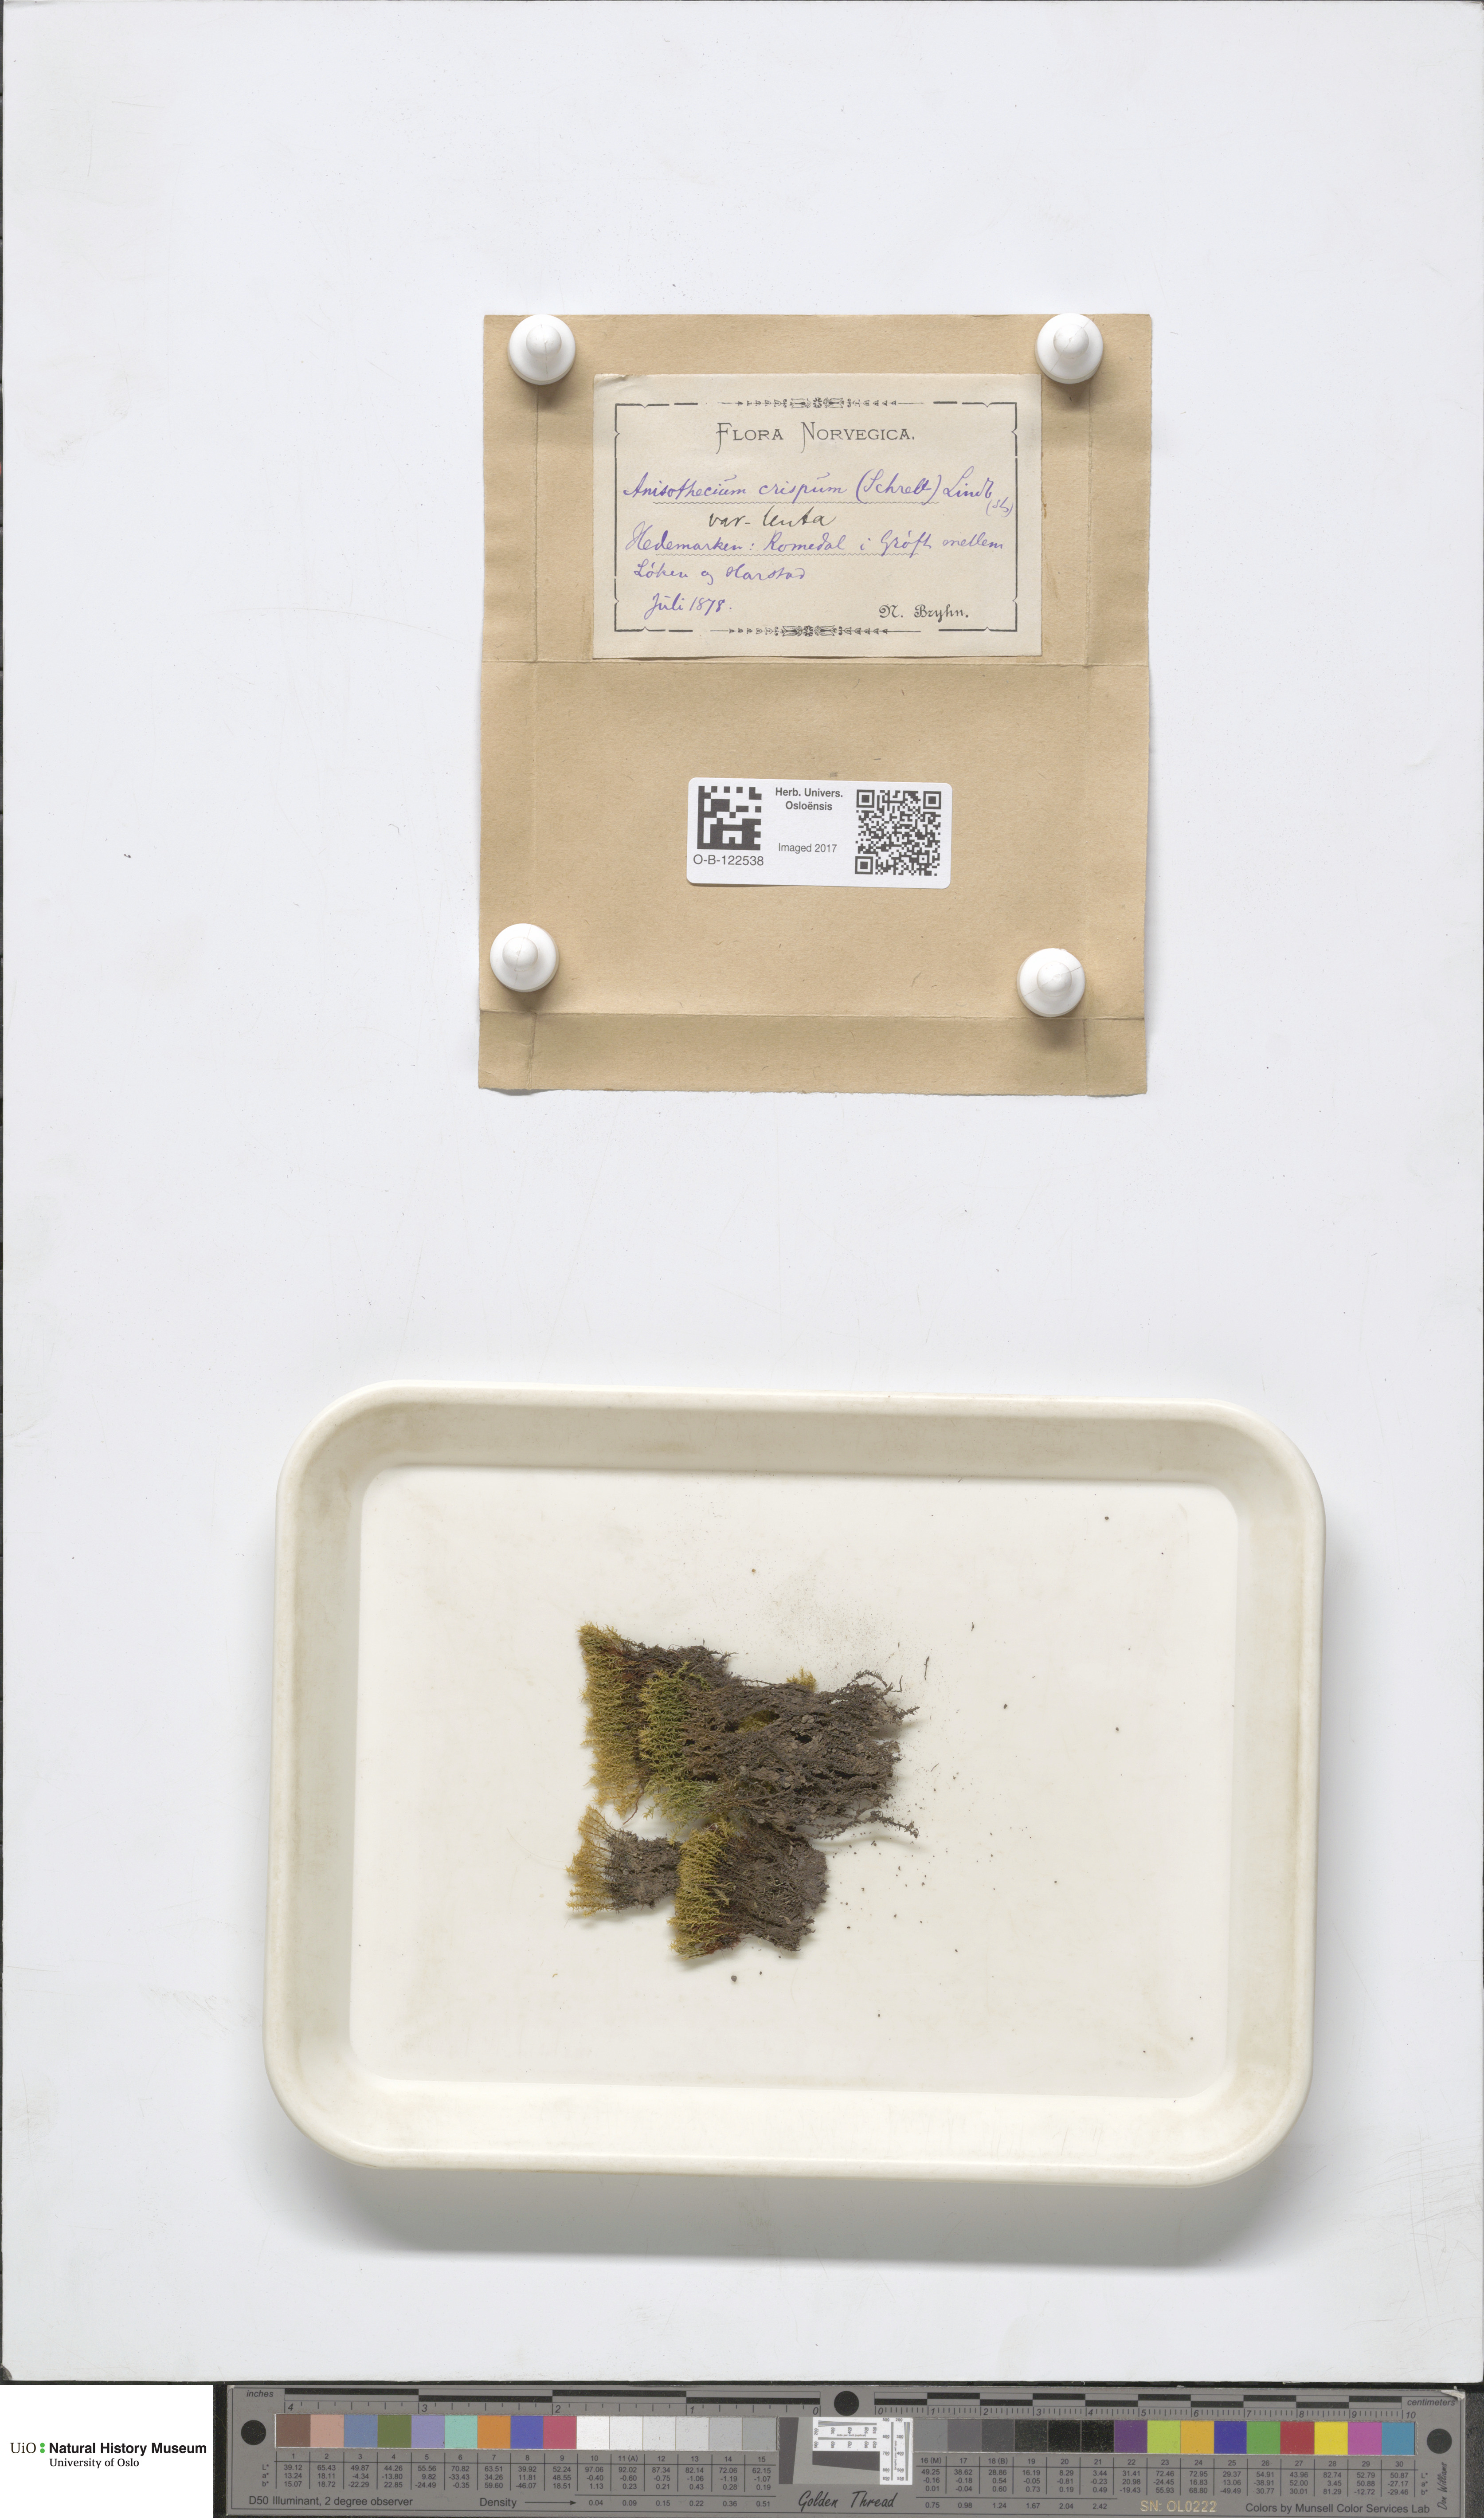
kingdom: Plantae
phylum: Bryophyta
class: Bryopsida
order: Dicranales
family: Dicranellaceae
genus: Dicranella
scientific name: Dicranella schreberiana
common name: Schreber's forklet moss
